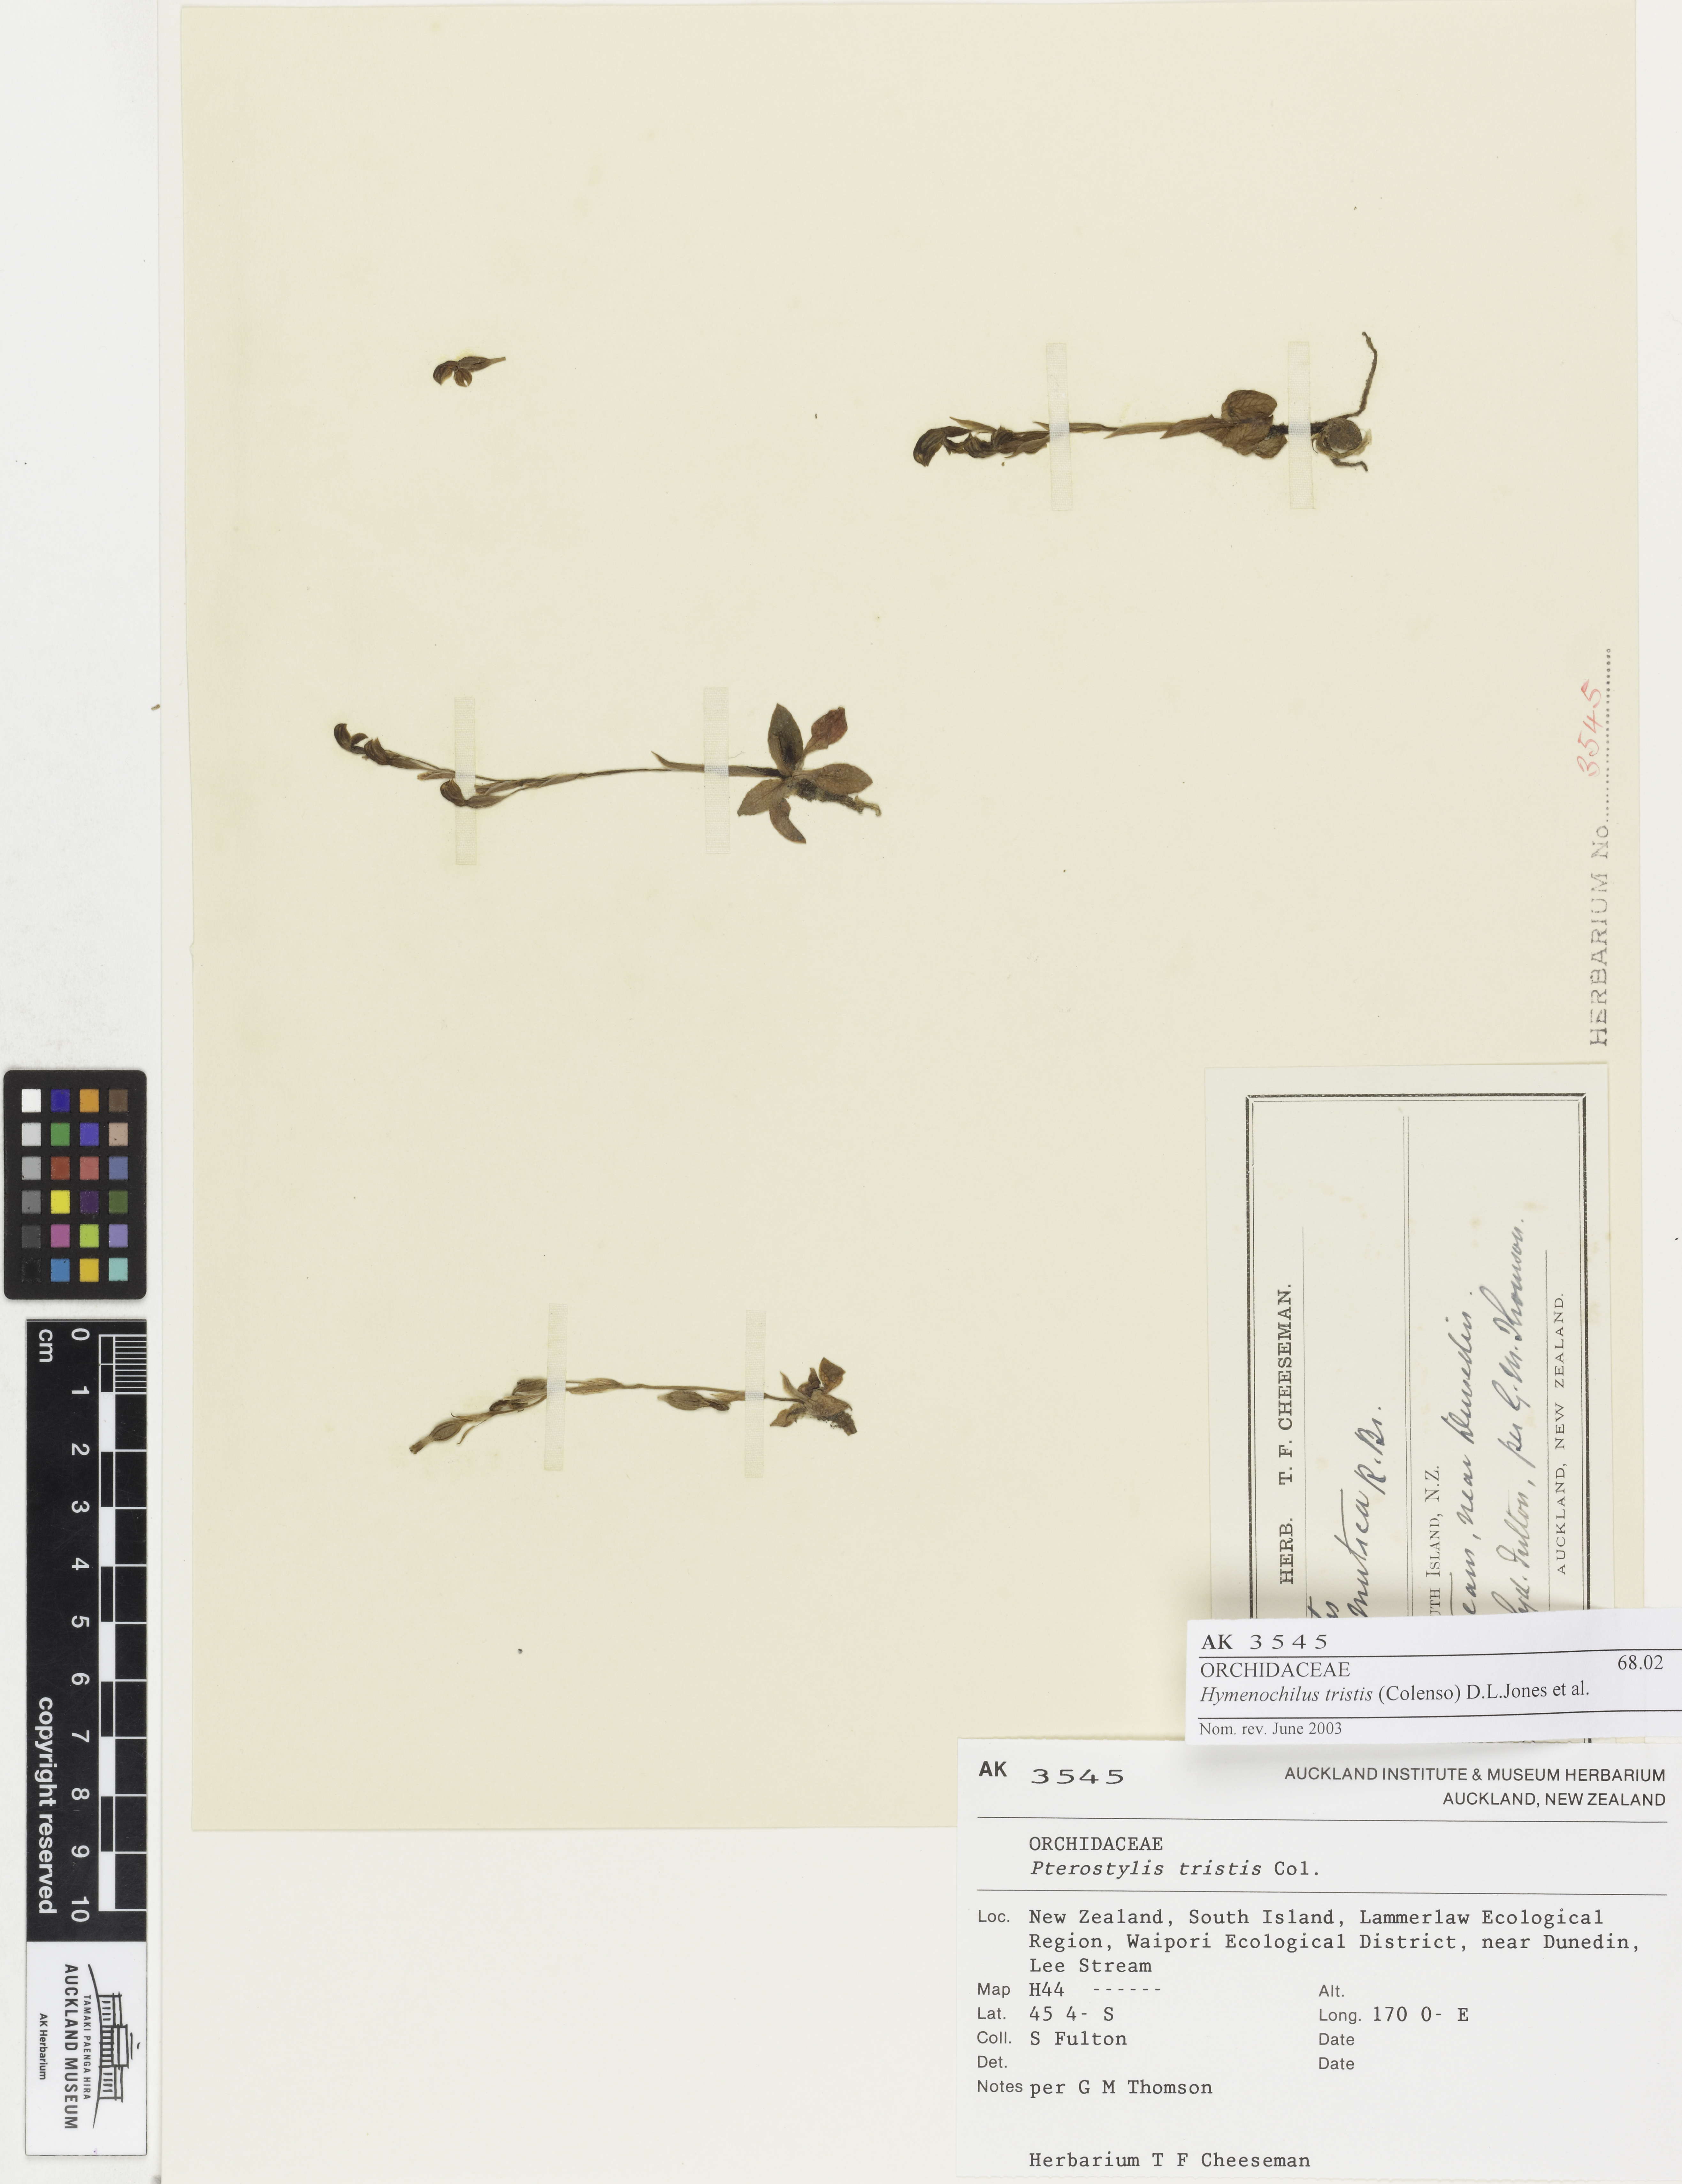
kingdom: Plantae
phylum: Tracheophyta
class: Liliopsida
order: Asparagales
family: Orchidaceae
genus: Pterostylis
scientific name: Pterostylis tristis
